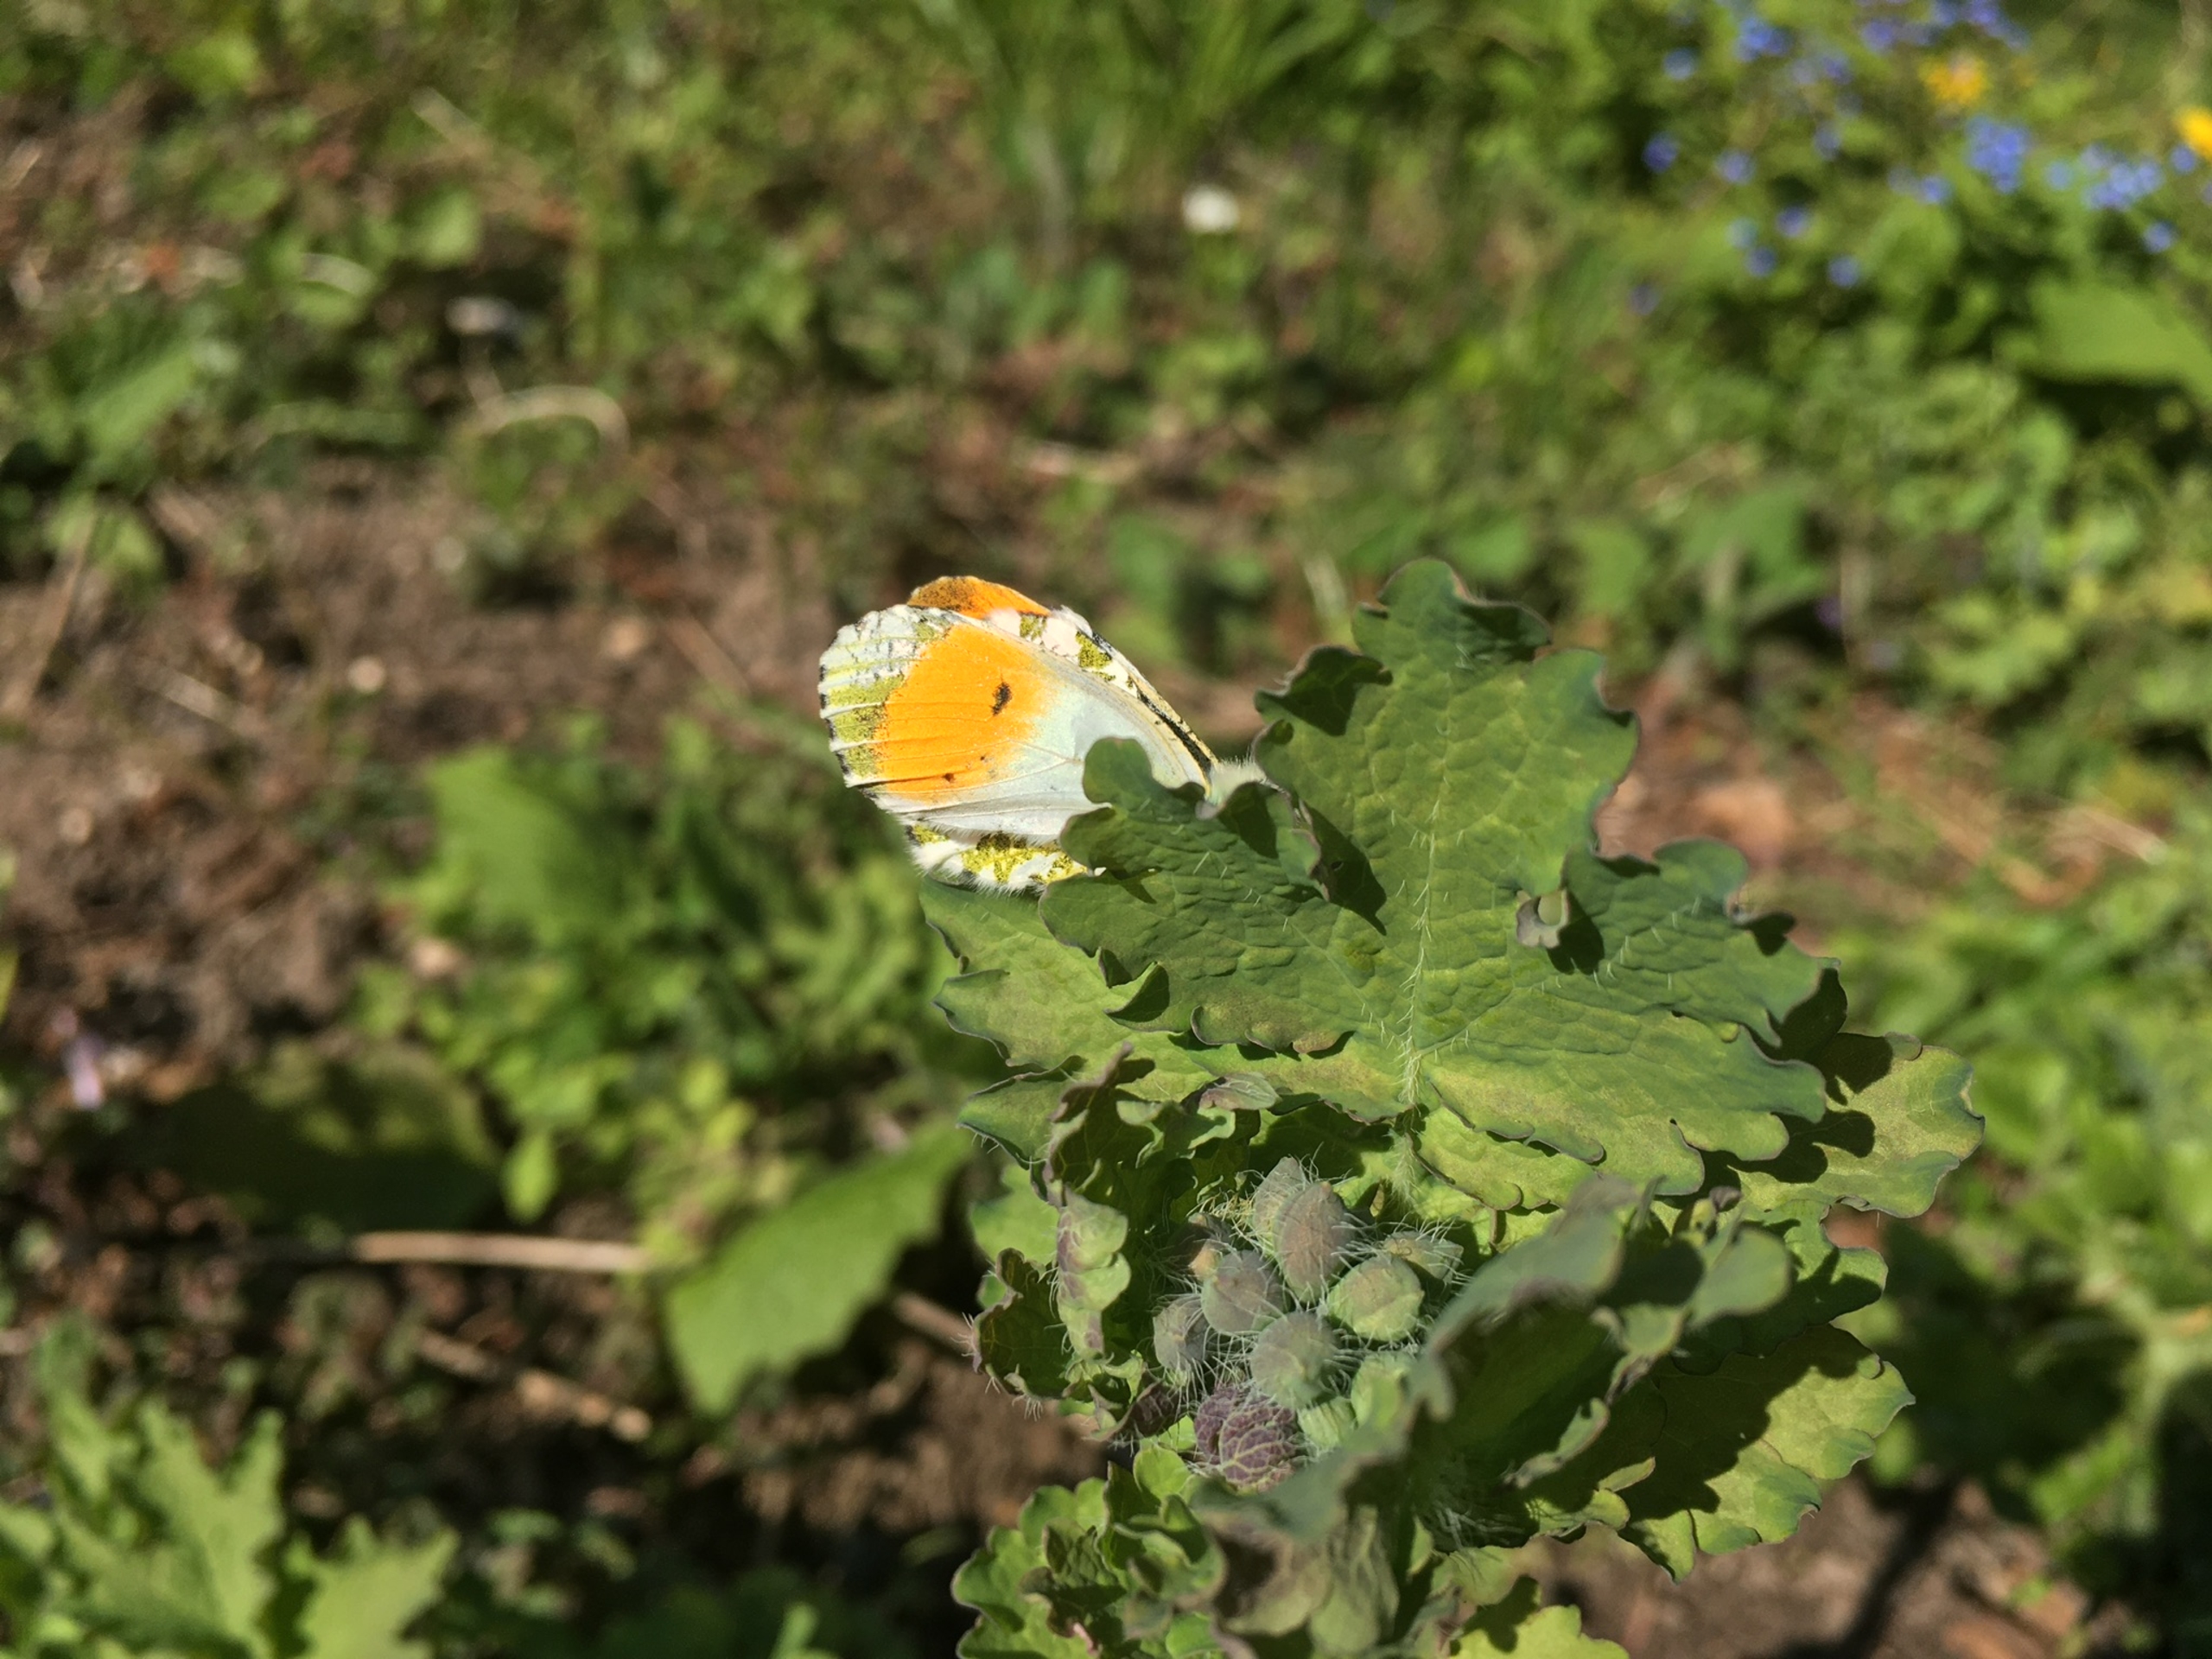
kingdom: Animalia
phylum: Arthropoda
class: Insecta
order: Lepidoptera
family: Pieridae
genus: Anthocharis
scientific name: Anthocharis cardamines
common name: Aurora
